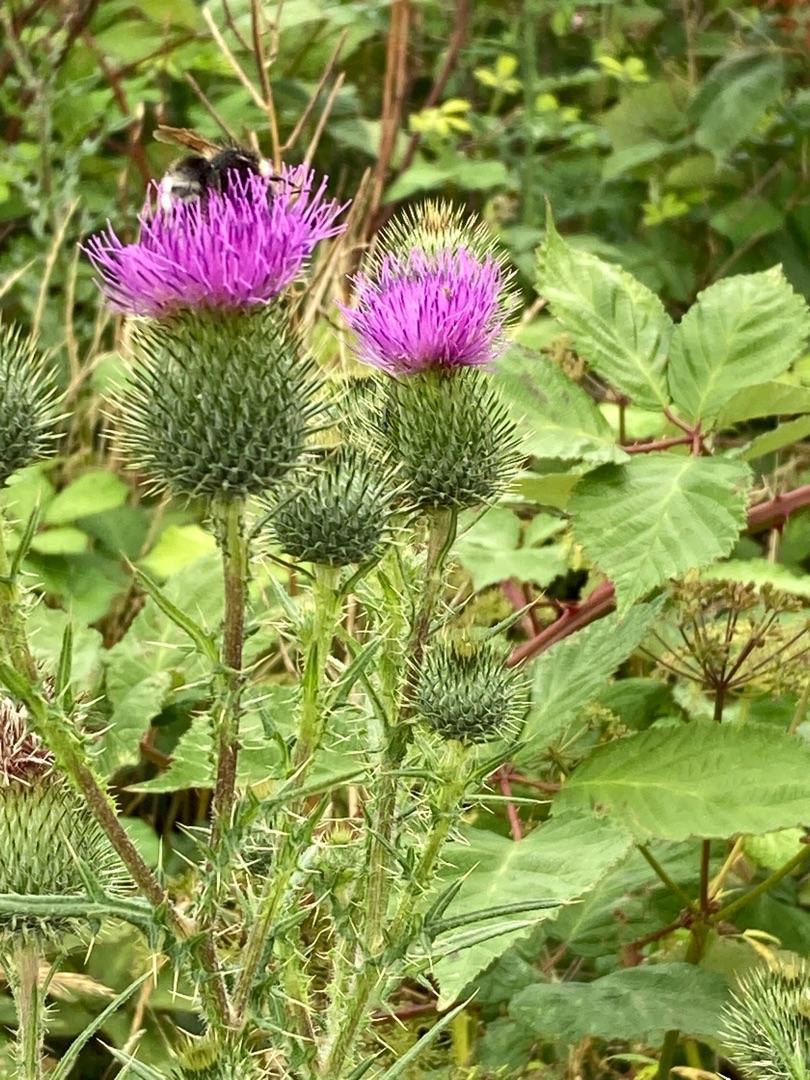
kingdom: Plantae
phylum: Tracheophyta
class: Magnoliopsida
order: Asterales
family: Asteraceae
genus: Cirsium
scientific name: Cirsium vulgare
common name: Horse-tidsel
